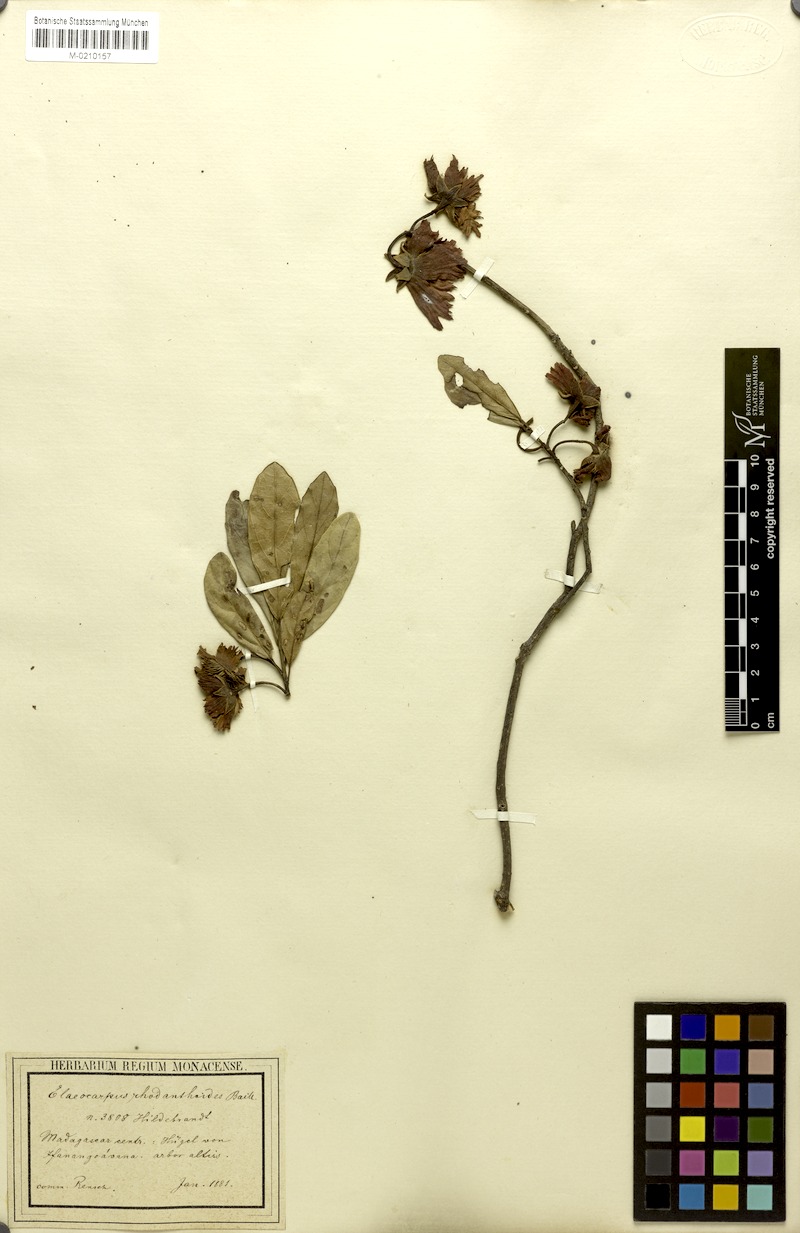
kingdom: Plantae
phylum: Tracheophyta
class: Magnoliopsida
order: Oxalidales
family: Elaeocarpaceae
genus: Sloanea
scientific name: Sloanea rhodantha
